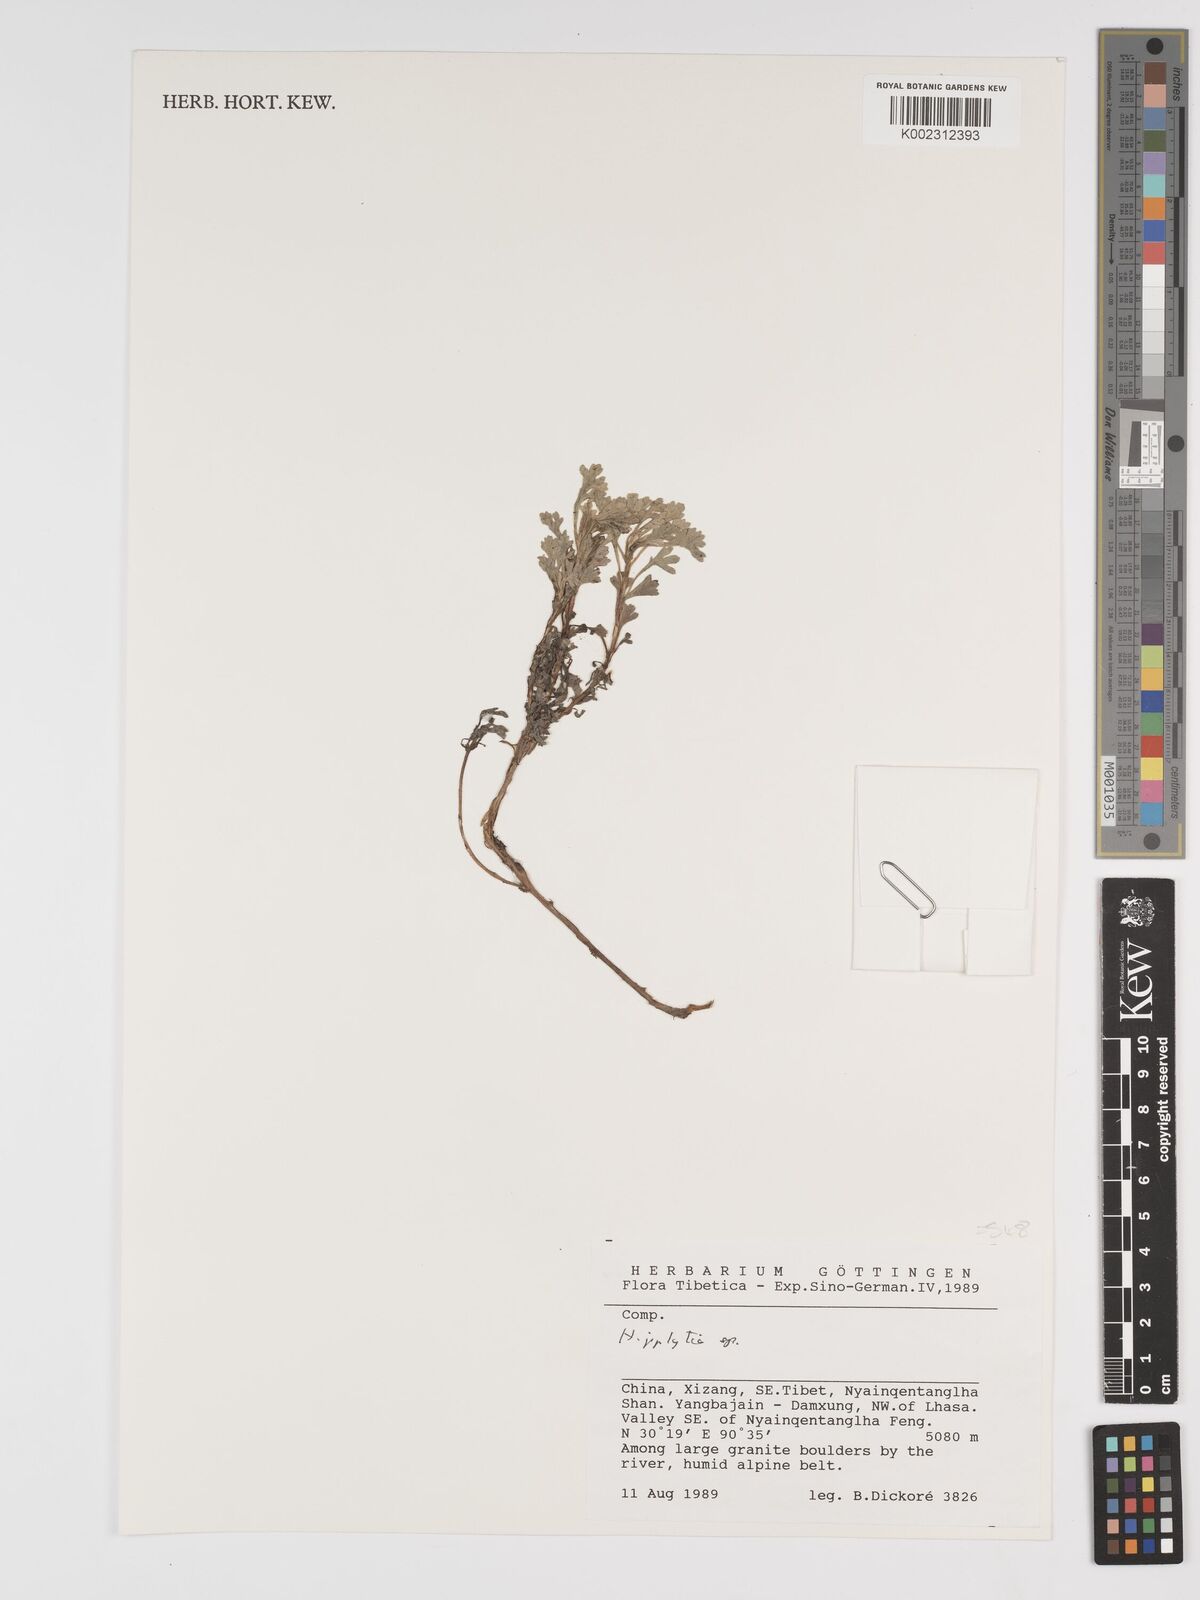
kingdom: Plantae
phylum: Tracheophyta
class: Magnoliopsida
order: Asterales
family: Asteraceae
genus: Tanacetum
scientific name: Tanacetum
